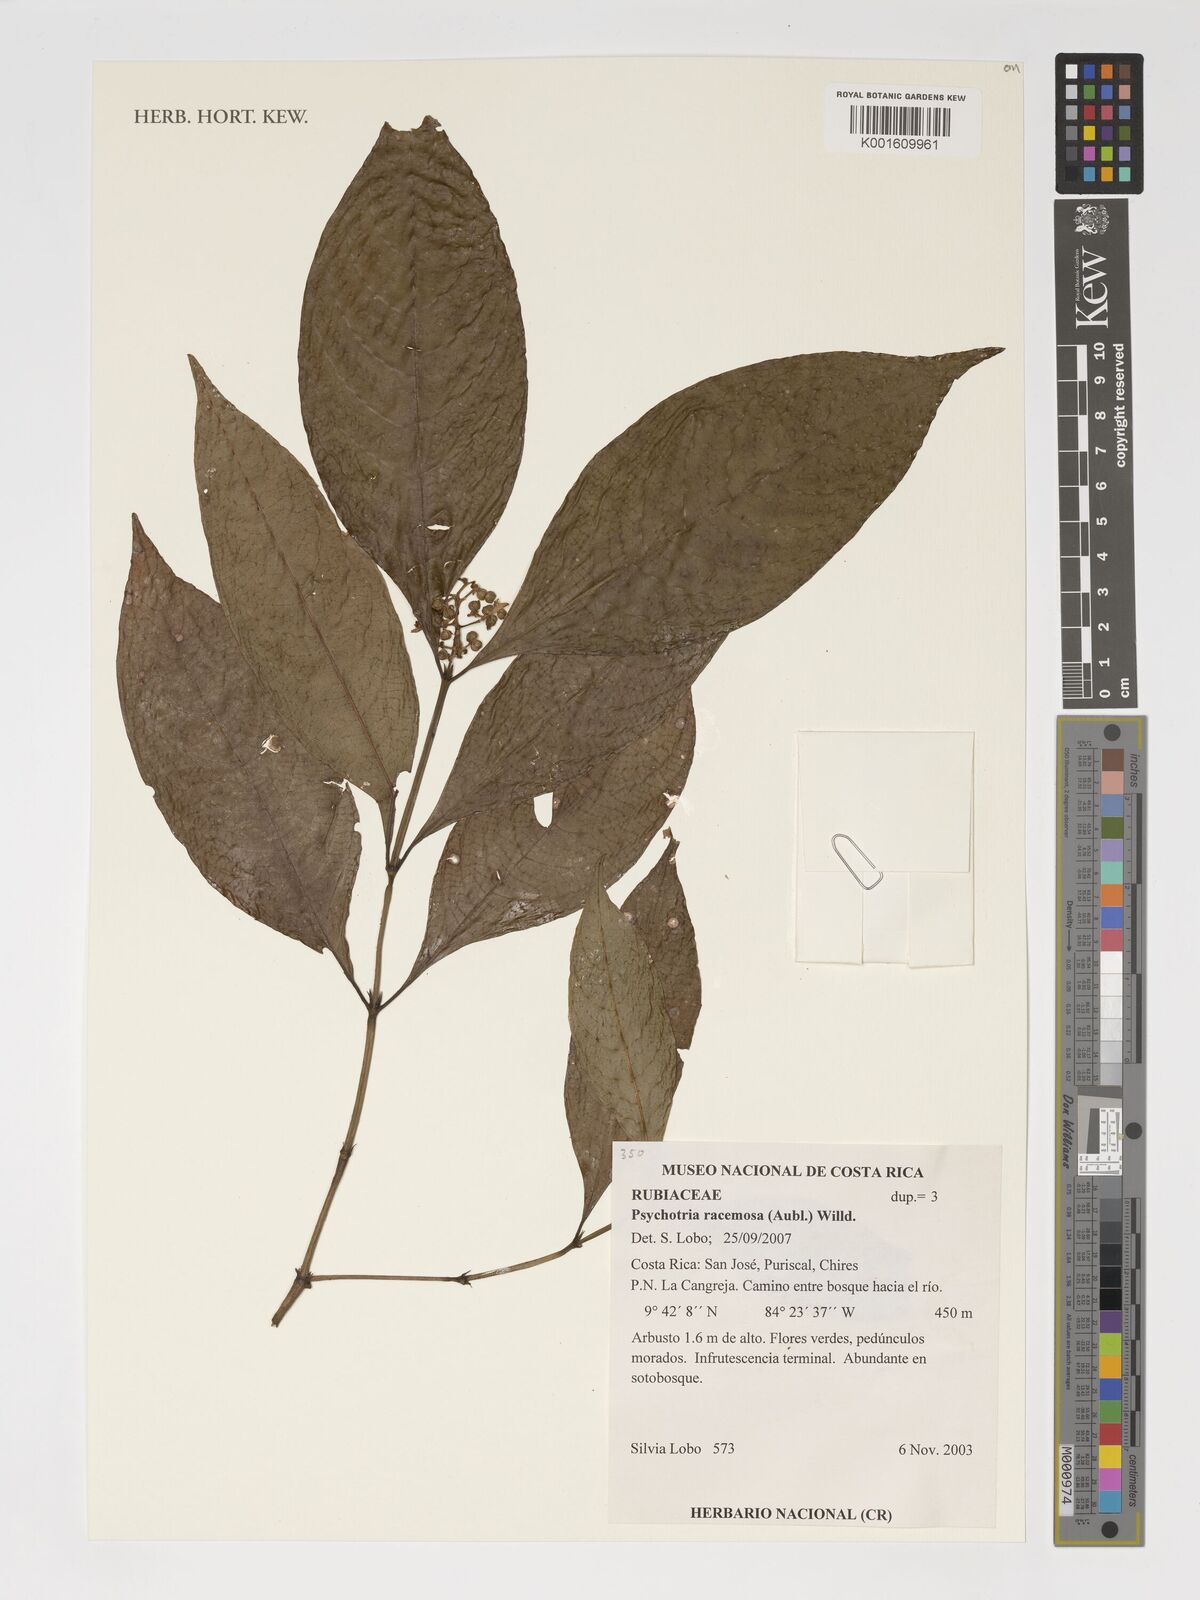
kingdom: Plantae
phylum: Tracheophyta
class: Magnoliopsida
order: Gentianales
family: Rubiaceae
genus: Palicourea
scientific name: Palicourea racemosa
